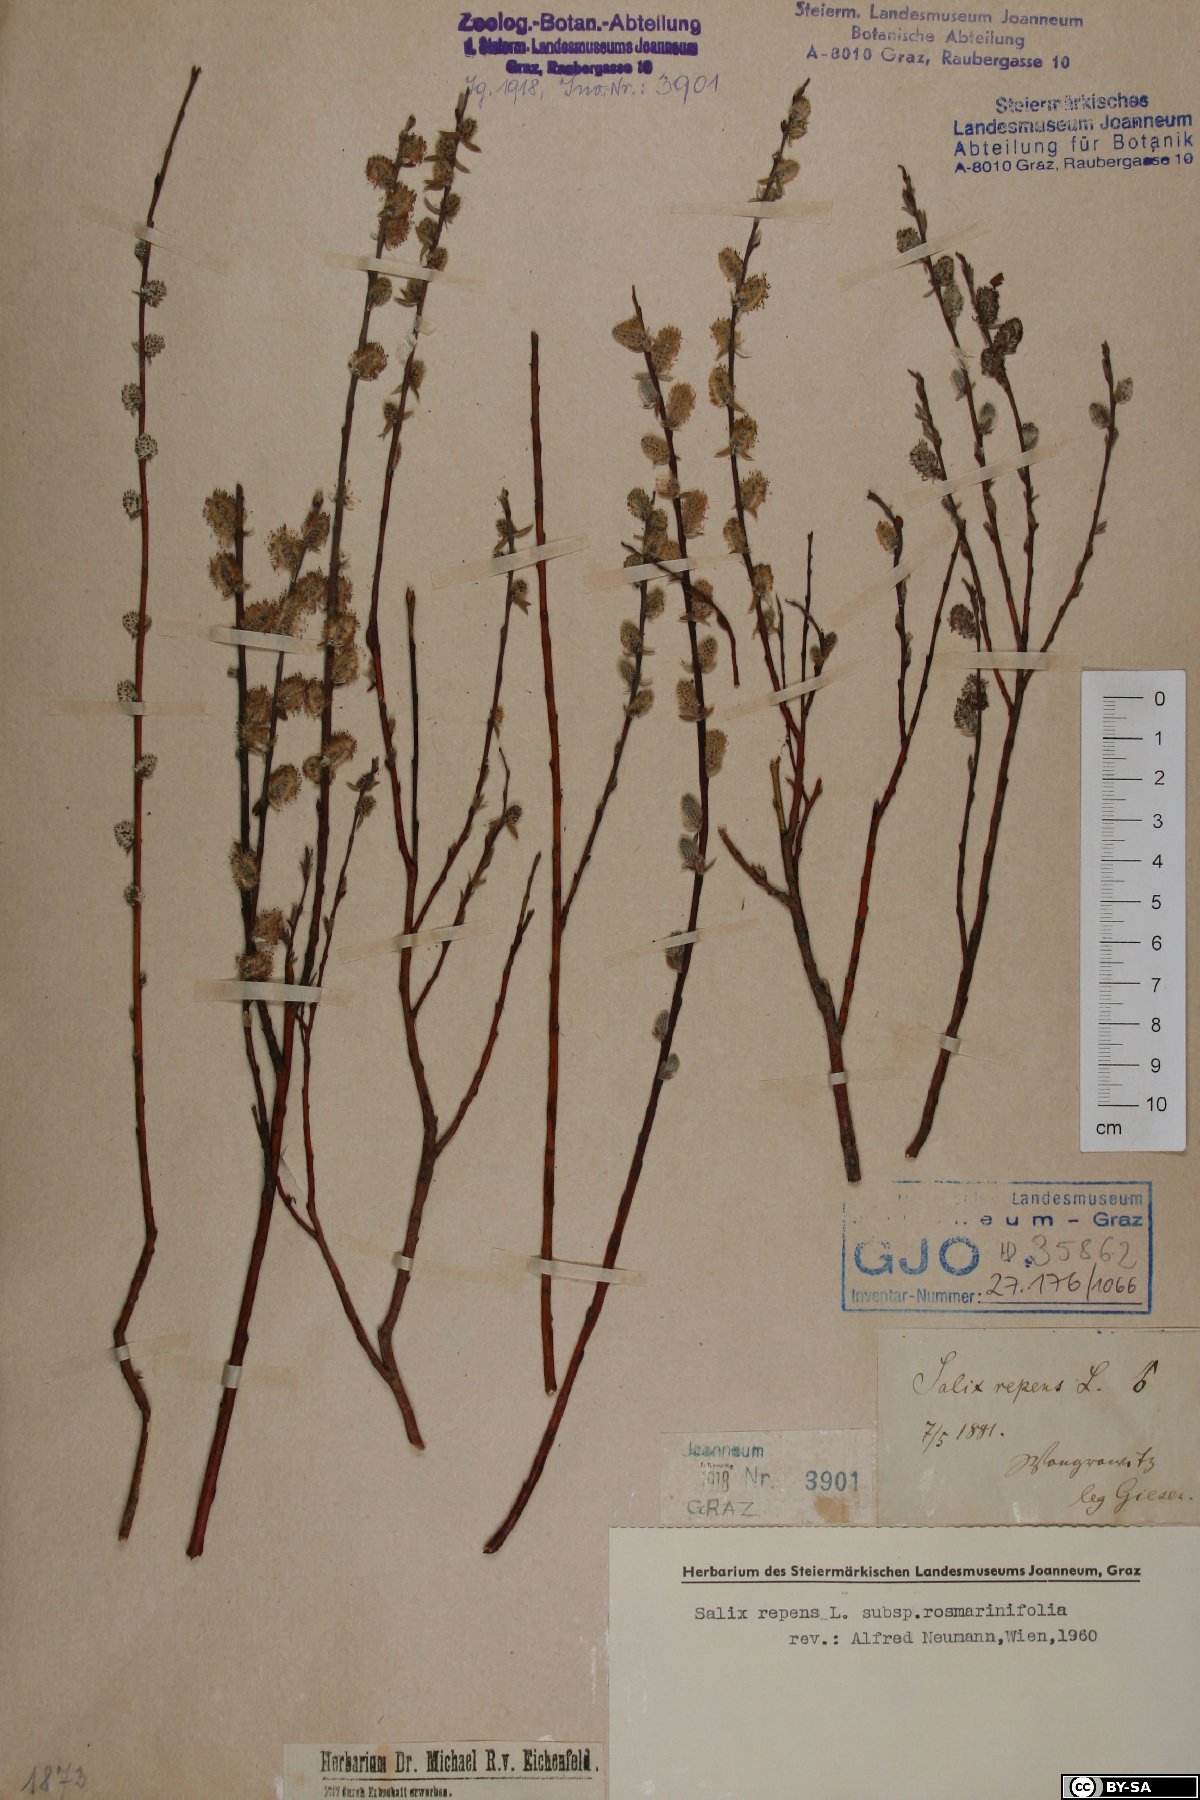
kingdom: Plantae
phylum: Tracheophyta
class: Magnoliopsida
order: Malpighiales
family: Salicaceae
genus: Salix
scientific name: Salix repens
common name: Creeping willow
